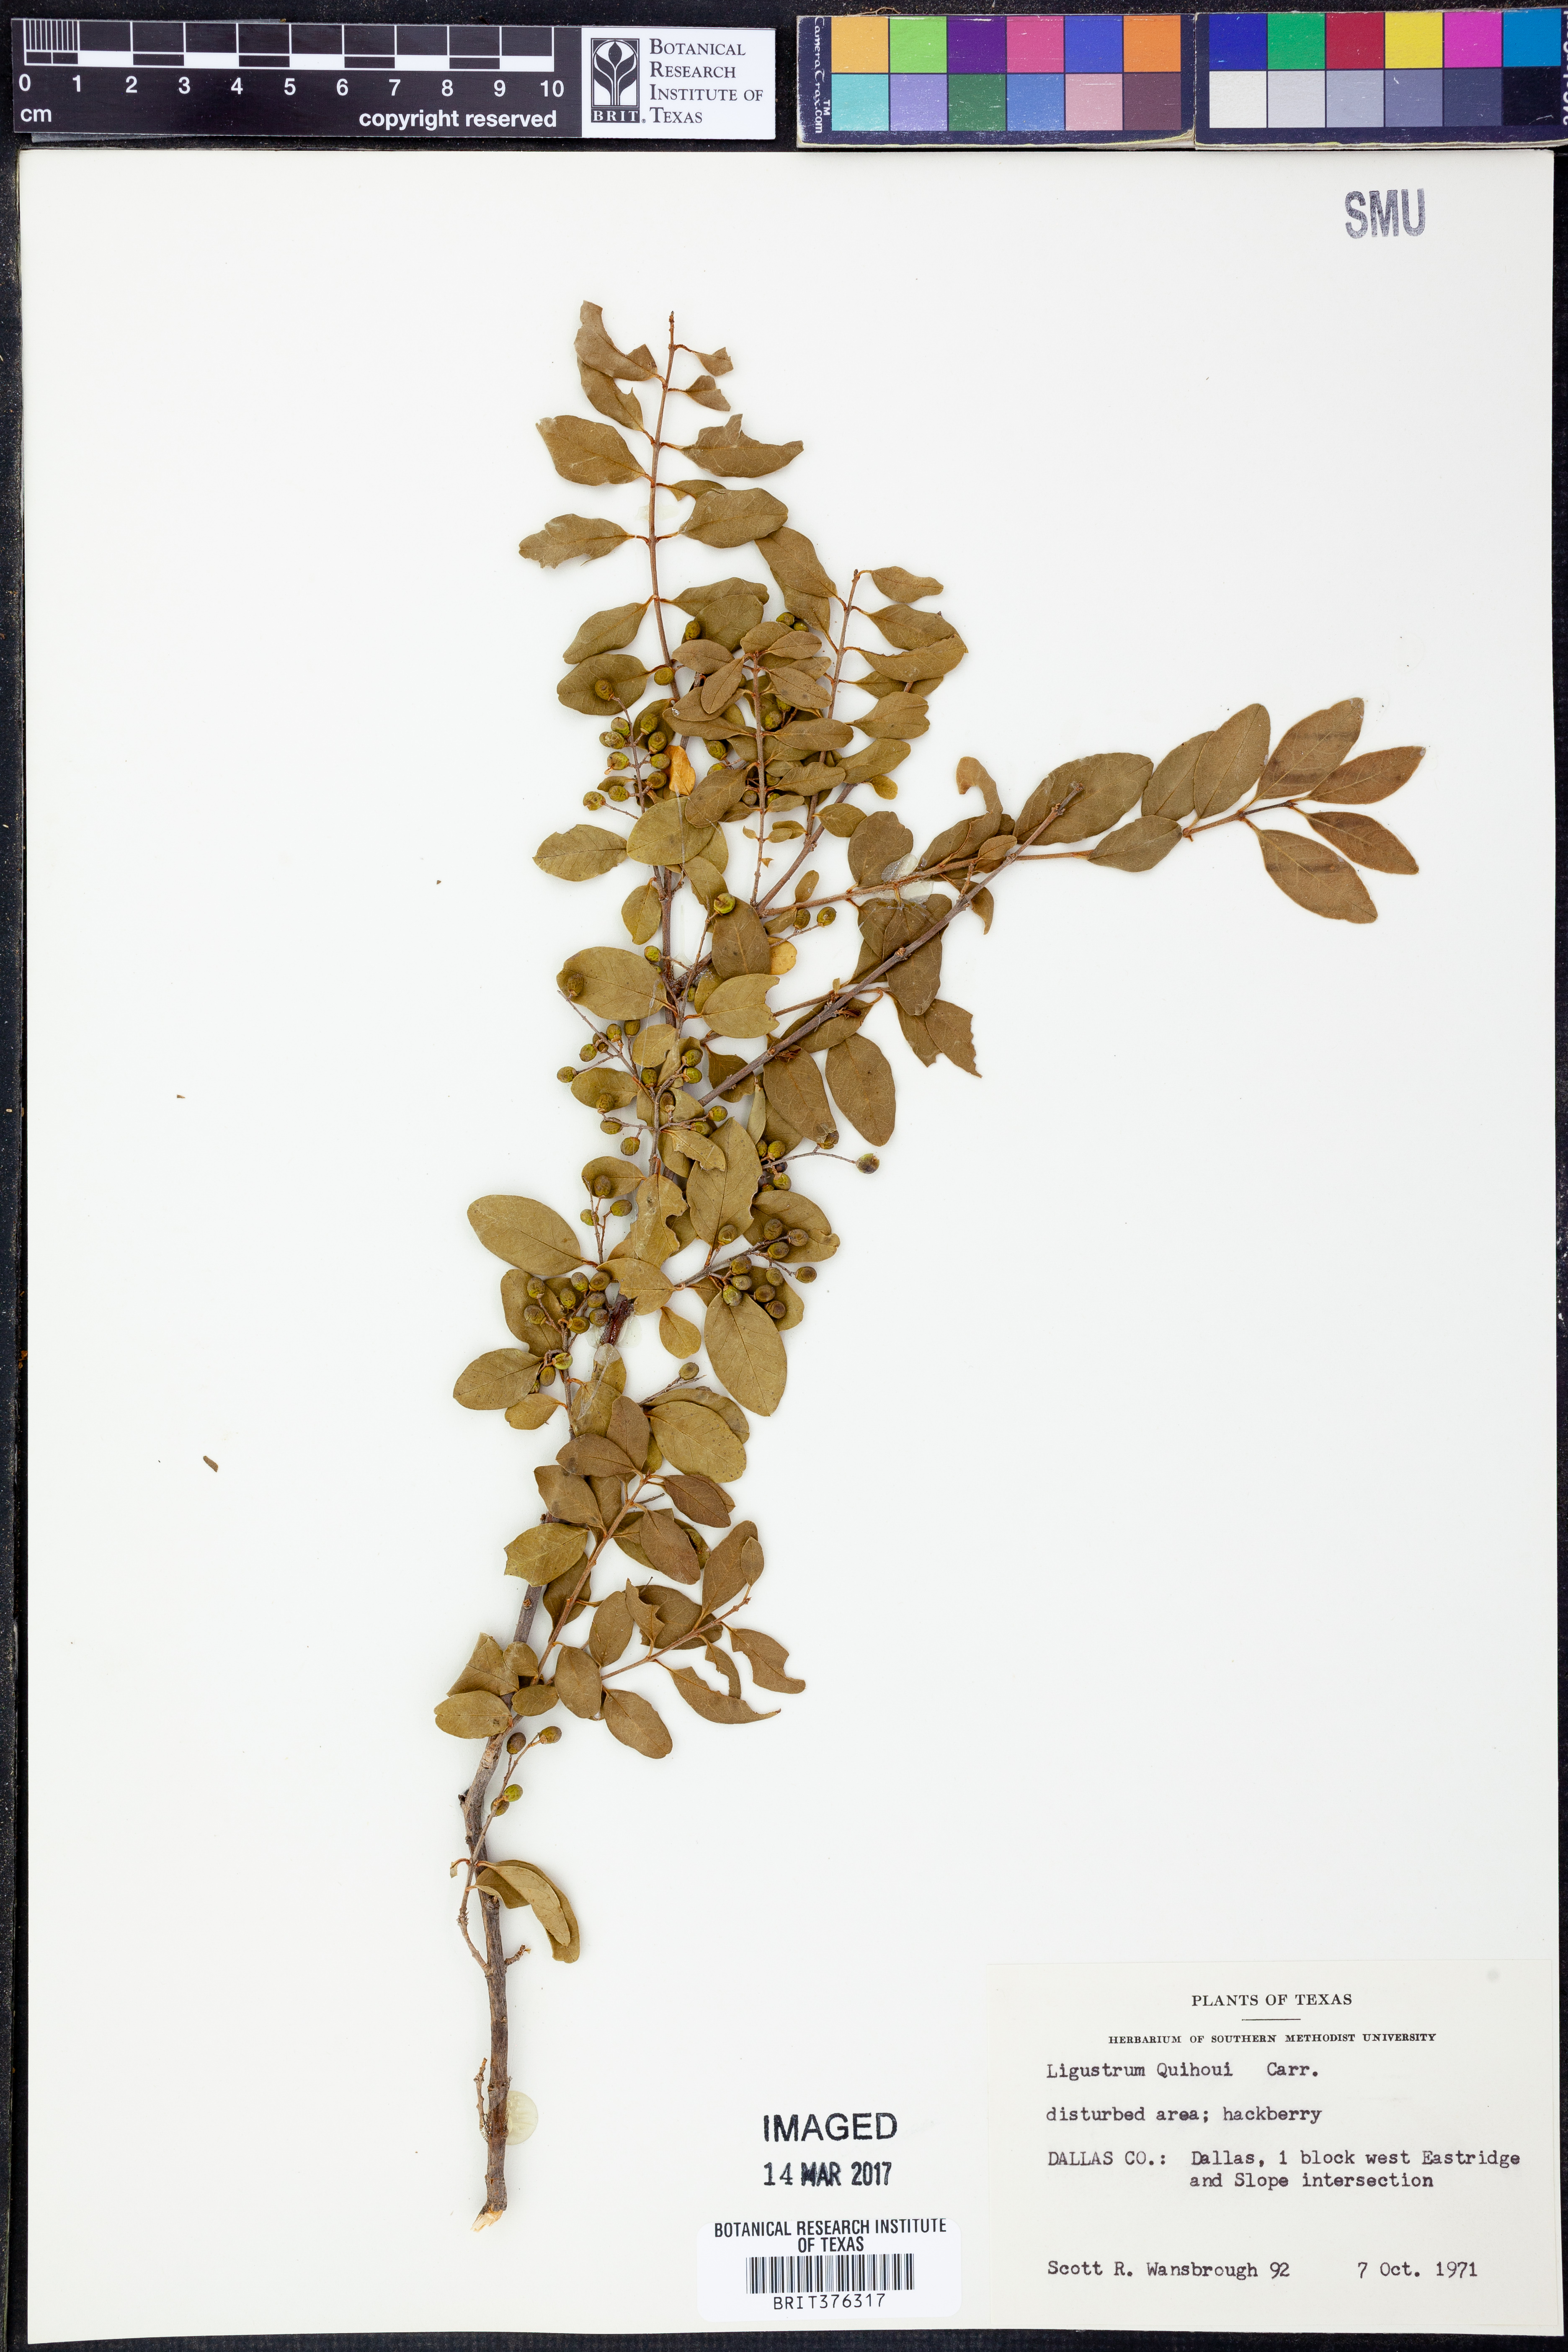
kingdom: Plantae
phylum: Tracheophyta
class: Magnoliopsida
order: Lamiales
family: Oleaceae
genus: Ligustrum
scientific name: Ligustrum quihoui
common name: Waxyleaf privet
